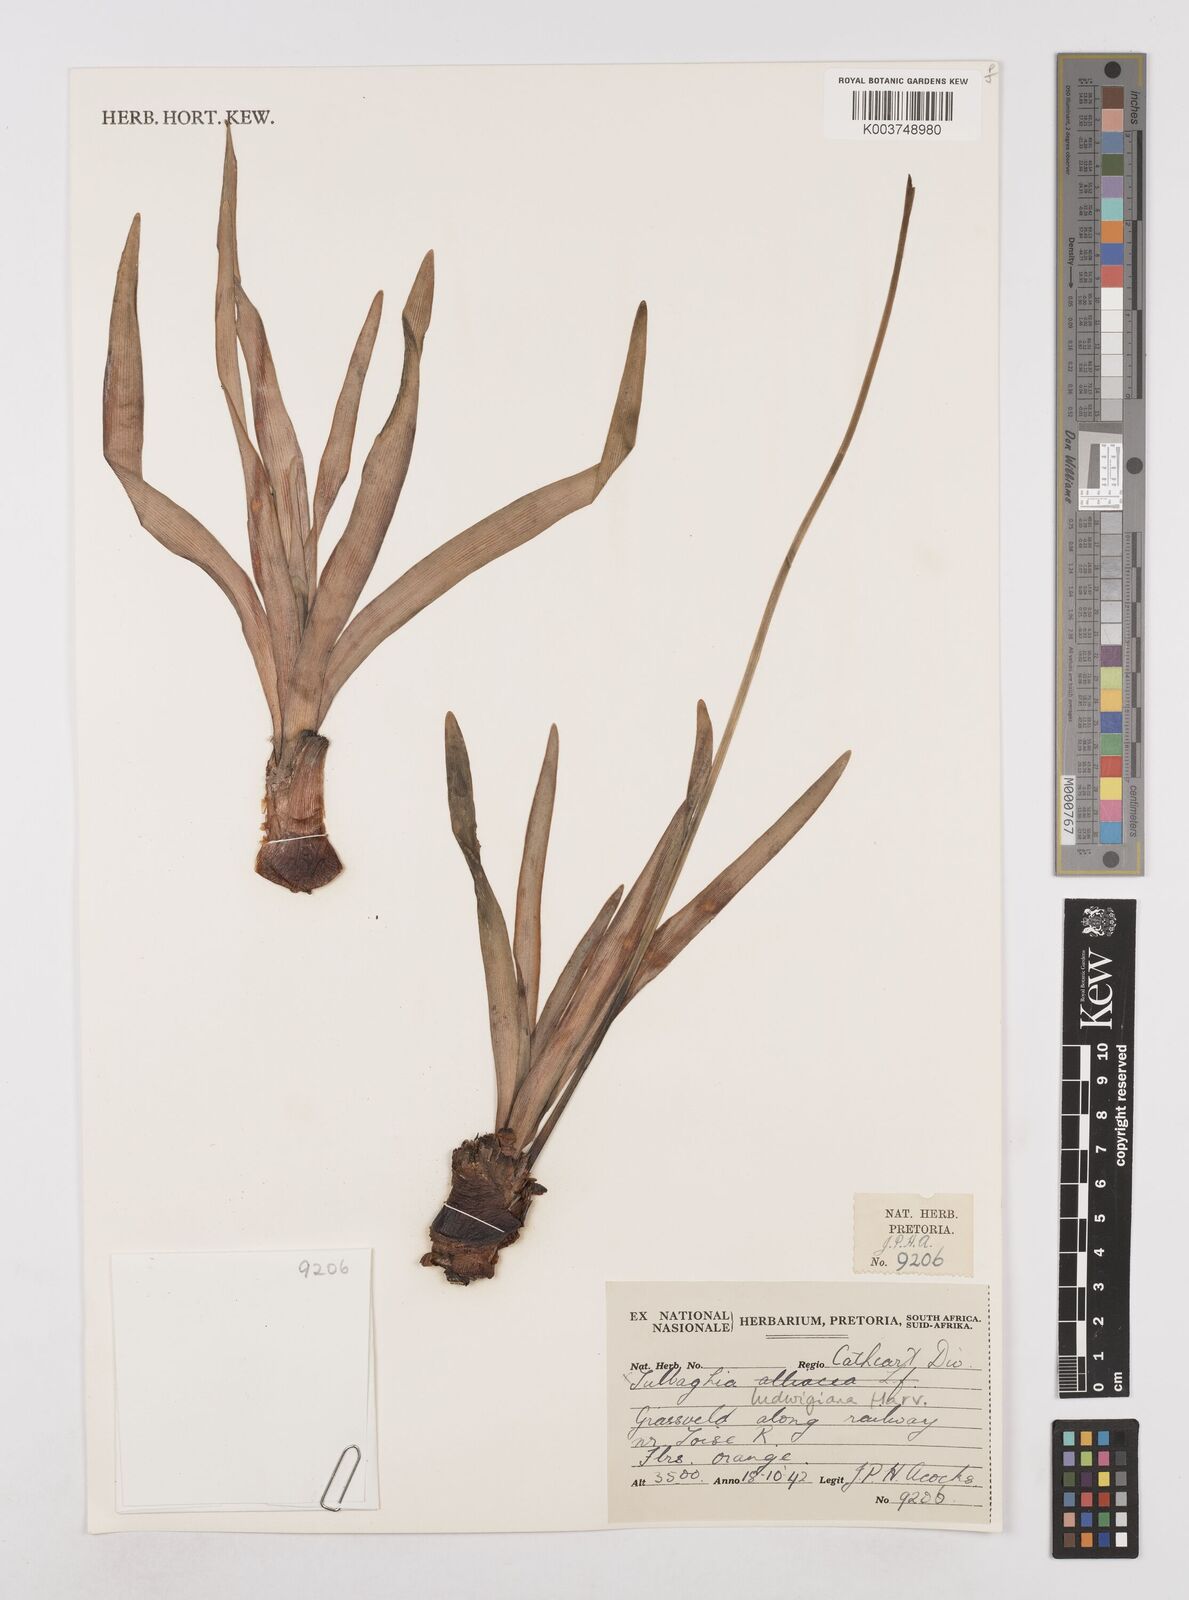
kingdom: Plantae
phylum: Tracheophyta
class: Liliopsida
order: Asparagales
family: Amaryllidaceae
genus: Tulbaghia
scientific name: Tulbaghia ludwigiana
